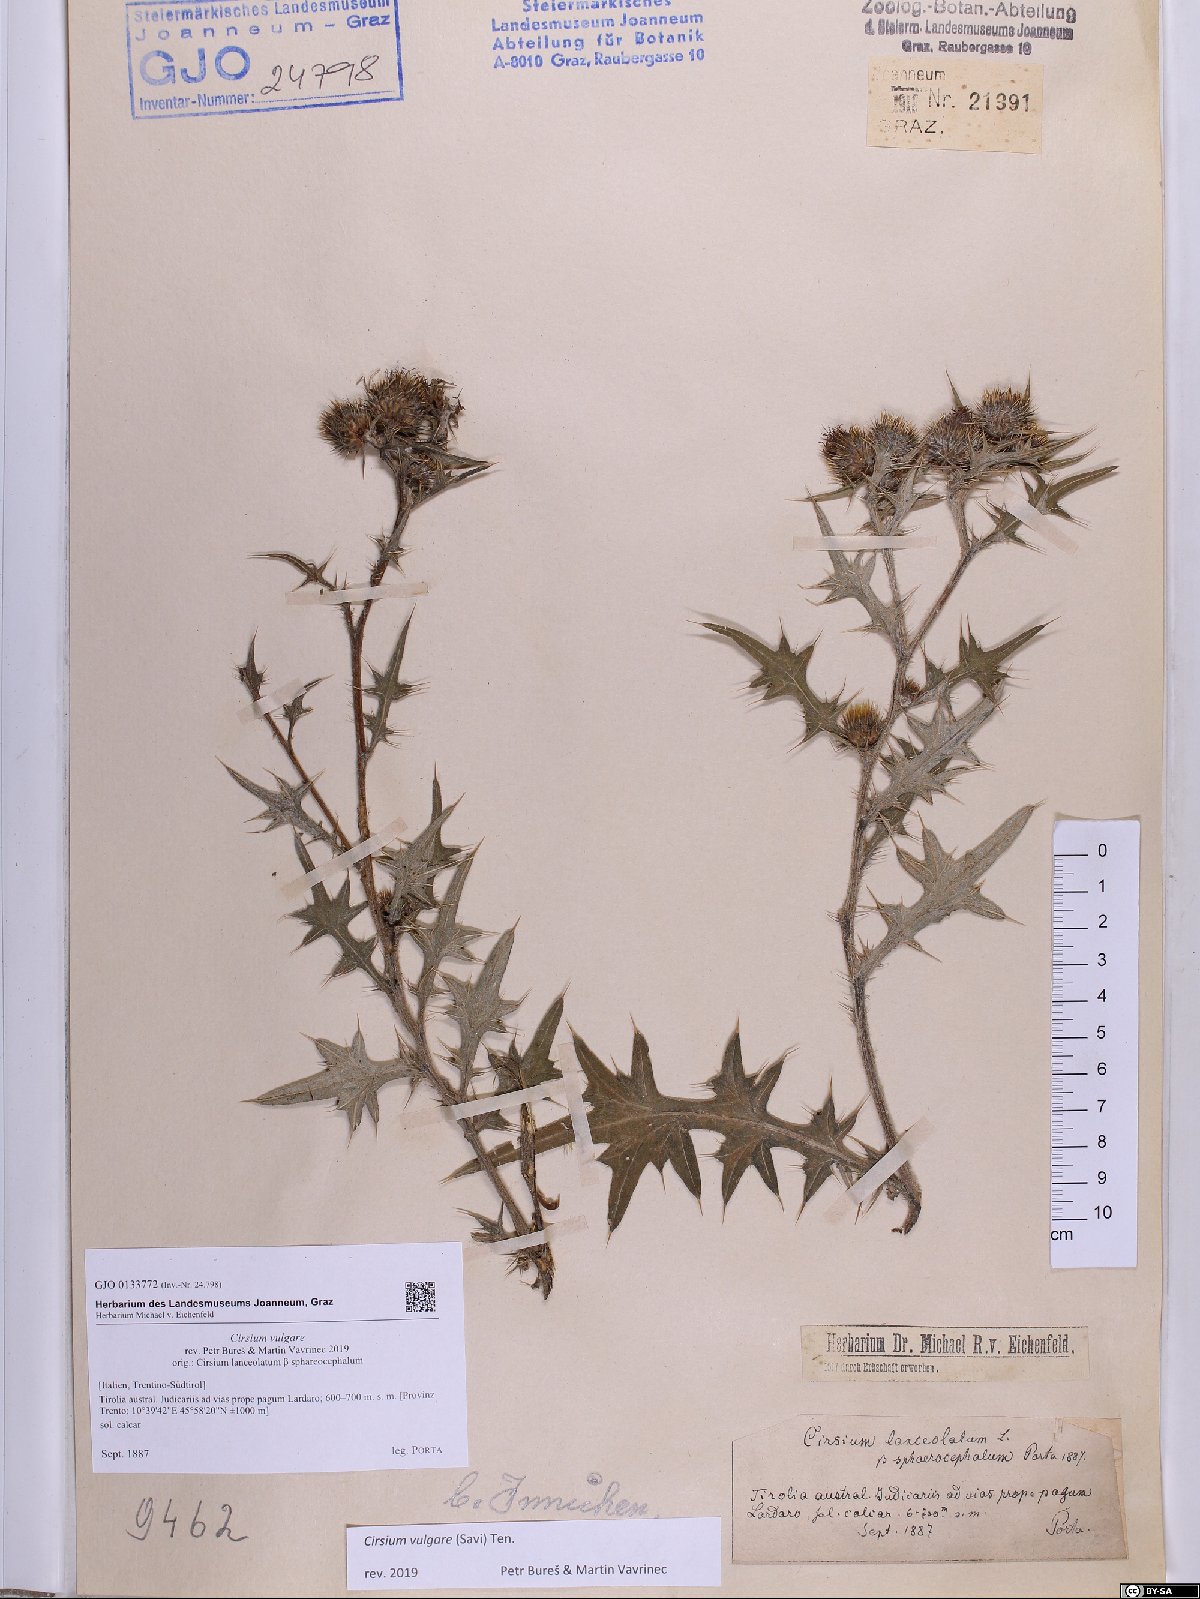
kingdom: Plantae
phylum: Tracheophyta
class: Magnoliopsida
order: Asterales
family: Asteraceae
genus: Cirsium
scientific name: Cirsium vulgare
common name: Bull thistle
